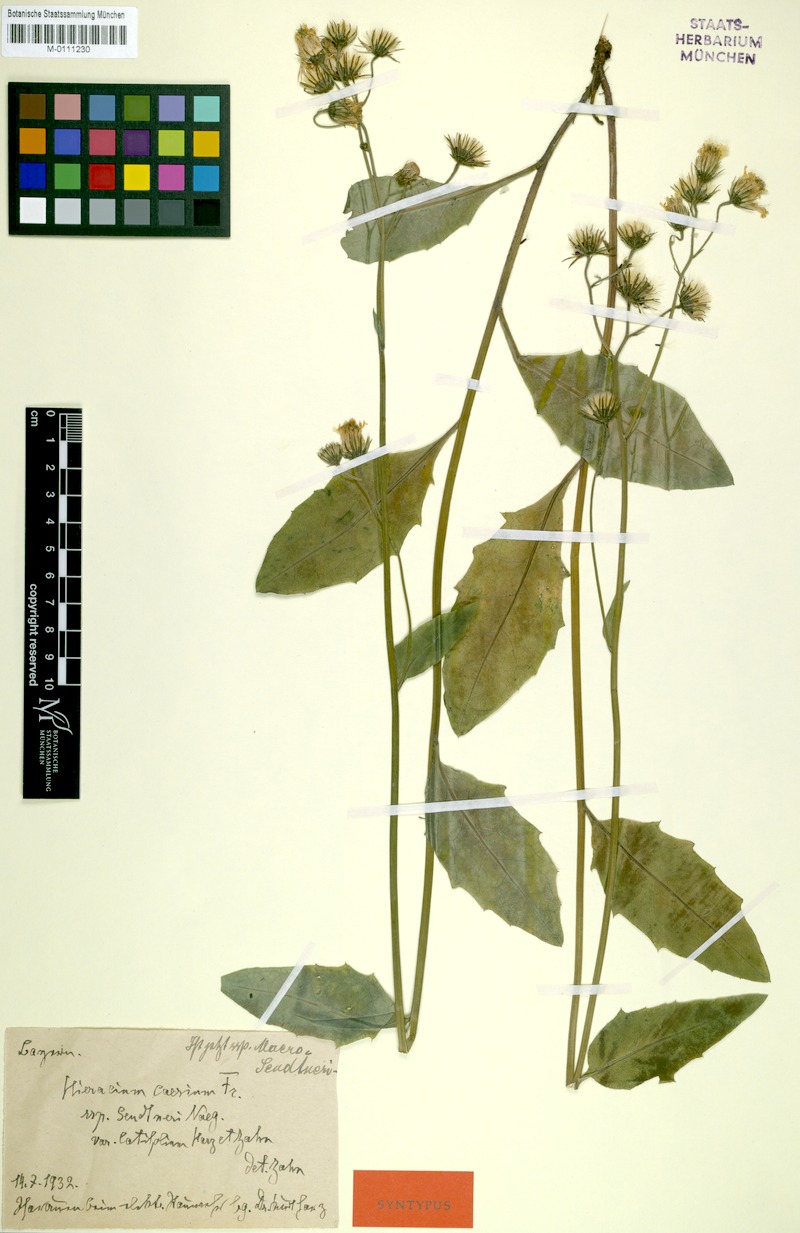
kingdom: Plantae
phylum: Tracheophyta
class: Magnoliopsida
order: Asterales
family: Asteraceae
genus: Hieracium
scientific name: Hieracium caesium
